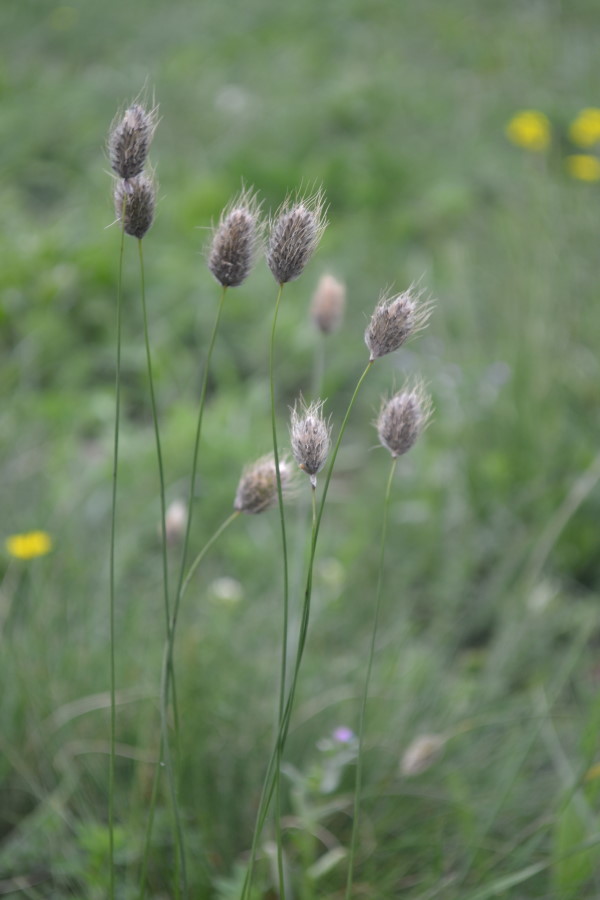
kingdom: Plantae
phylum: Tracheophyta
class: Liliopsida
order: Poales
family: Poaceae
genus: Alopecurus
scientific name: Alopecurus vaginatus
